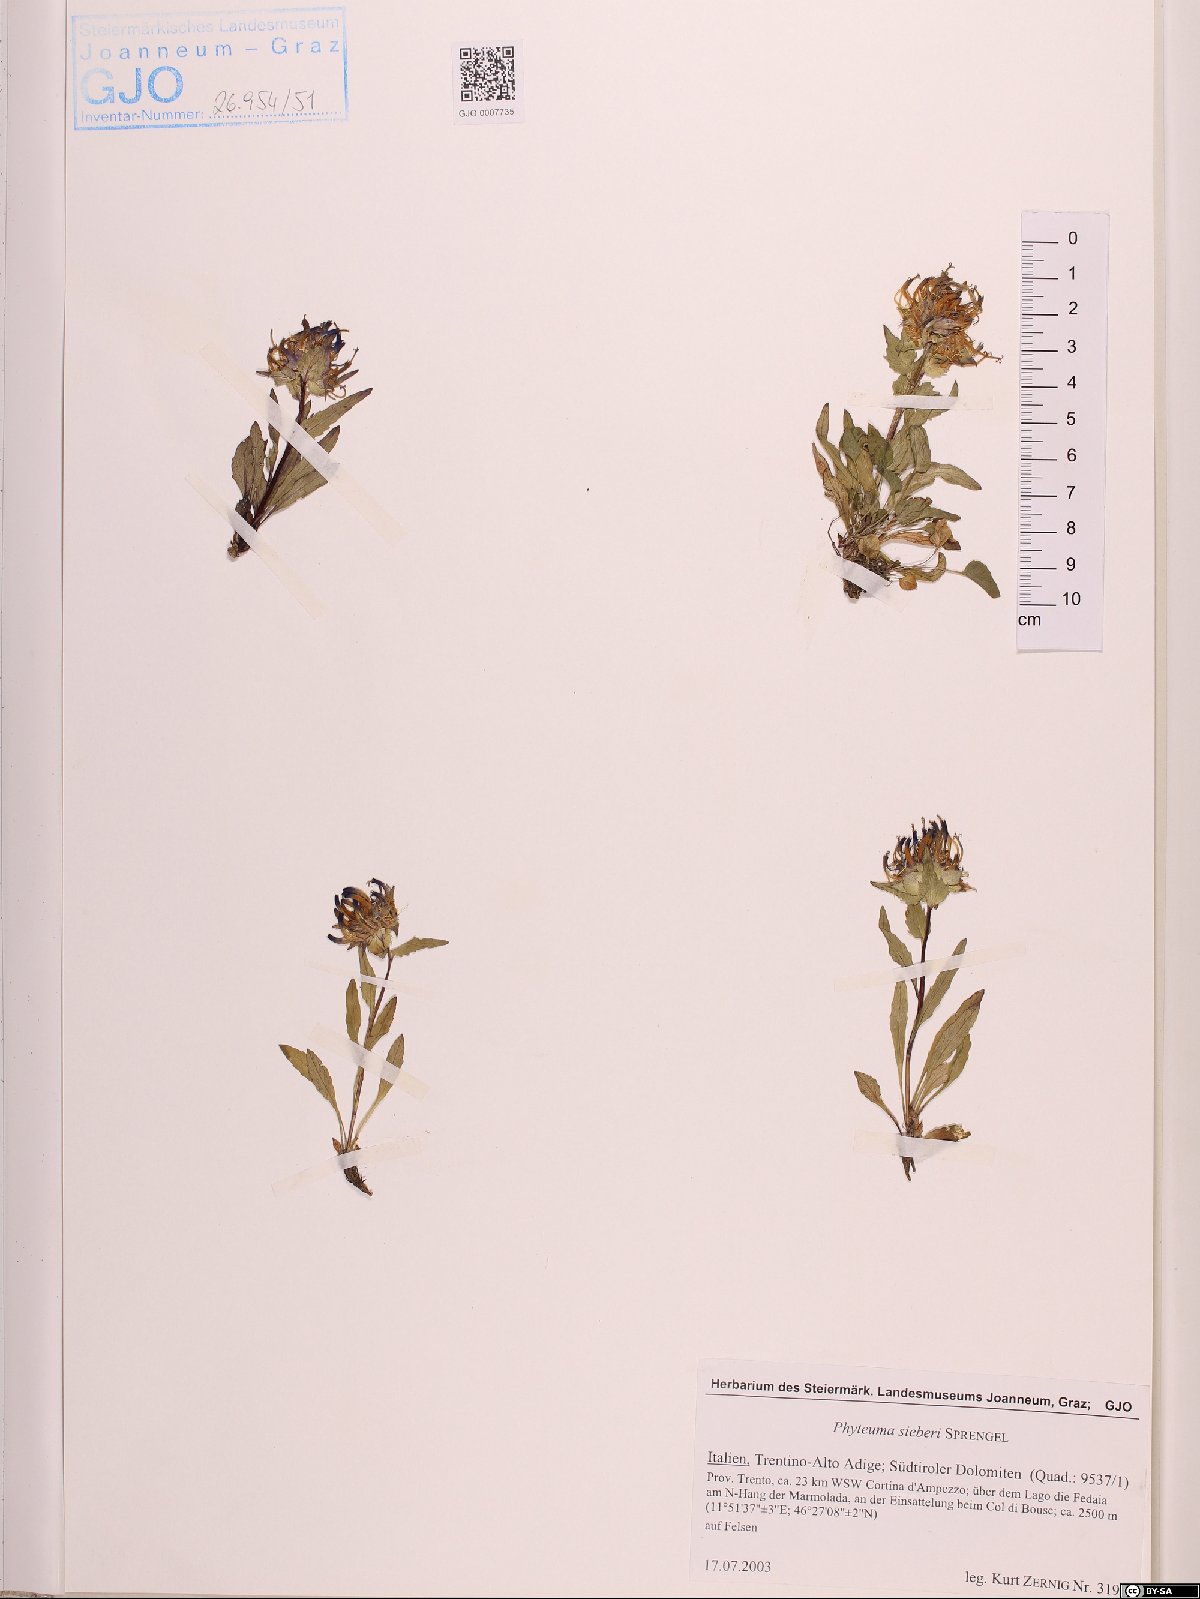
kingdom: Plantae
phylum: Tracheophyta
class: Magnoliopsida
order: Asterales
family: Campanulaceae
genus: Phyteuma
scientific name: Phyteuma sieberi
